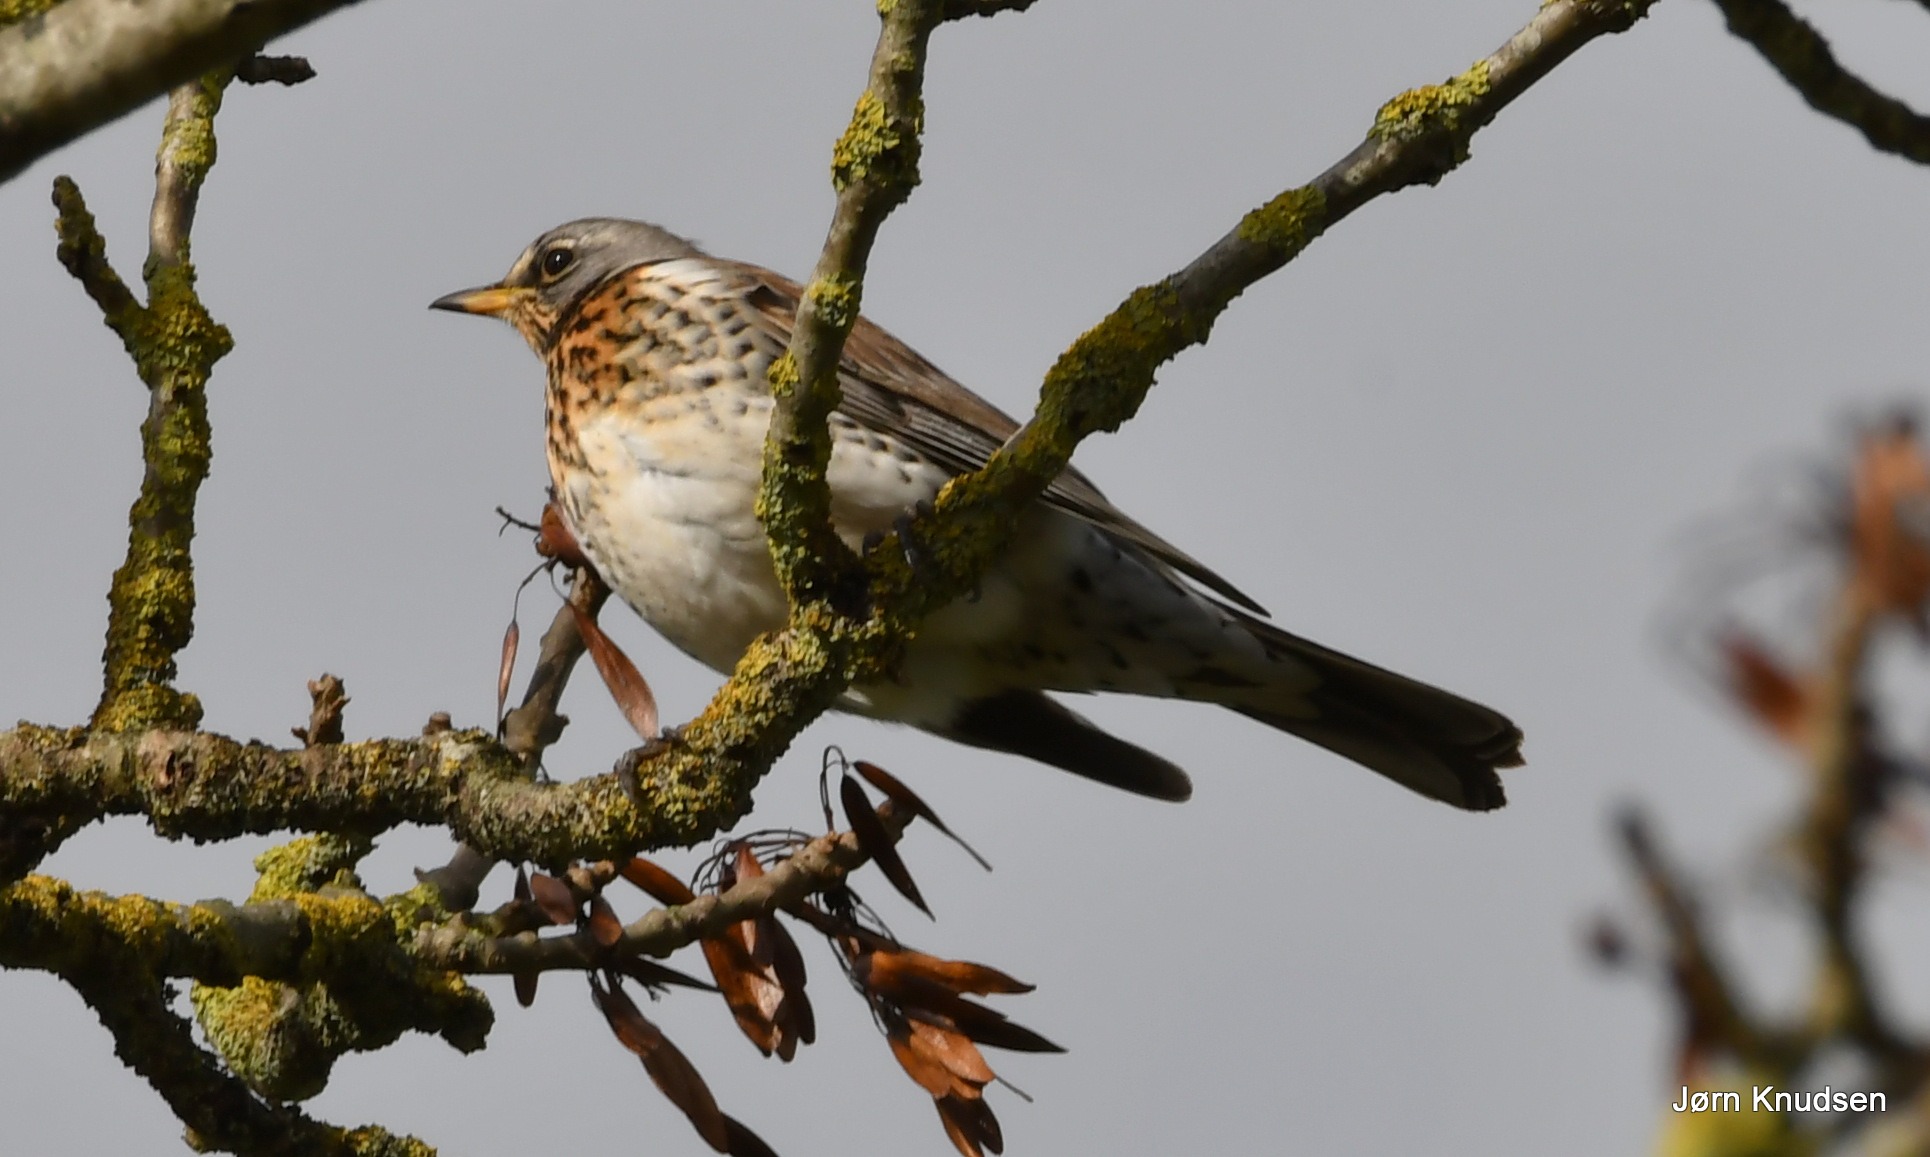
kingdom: Animalia
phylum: Chordata
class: Aves
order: Passeriformes
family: Turdidae
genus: Turdus
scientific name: Turdus pilaris
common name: Sjagger
